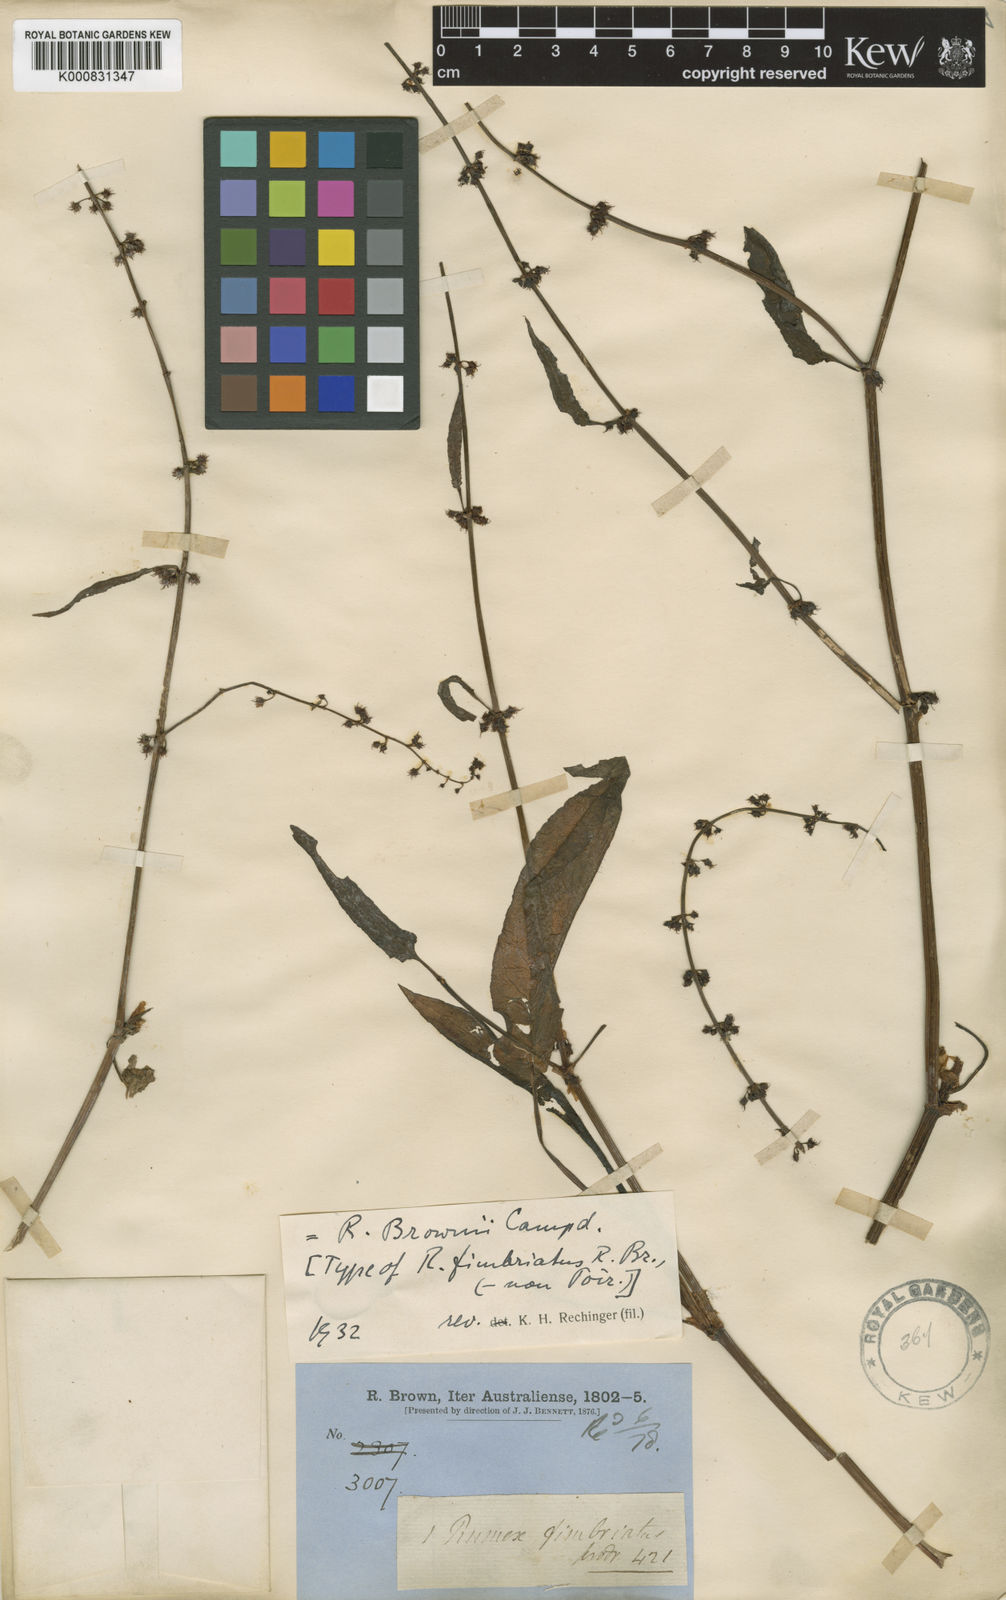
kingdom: Plantae
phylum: Tracheophyta
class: Magnoliopsida
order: Caryophyllales
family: Polygonaceae
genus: Rumex
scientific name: Rumex brownii
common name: Hooked dock
